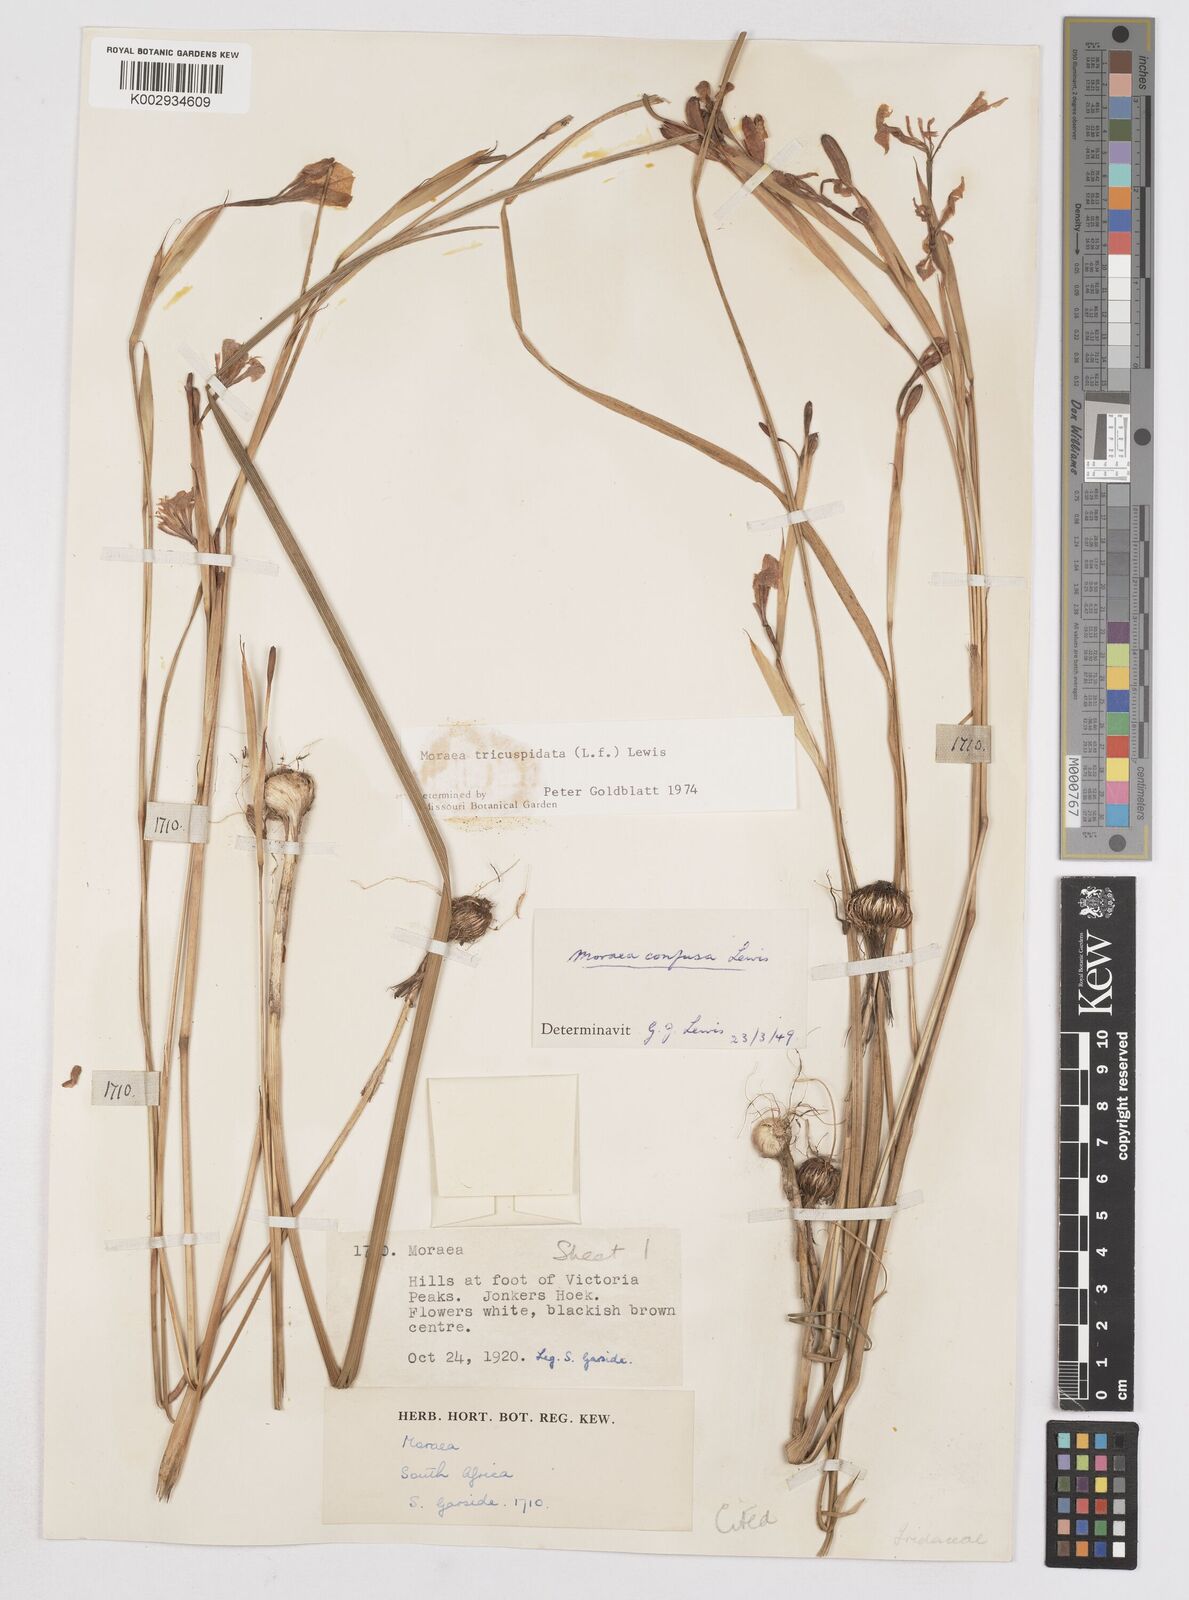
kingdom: Plantae
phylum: Tracheophyta
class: Liliopsida
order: Asparagales
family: Iridaceae
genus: Moraea
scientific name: Moraea tricuspidata
